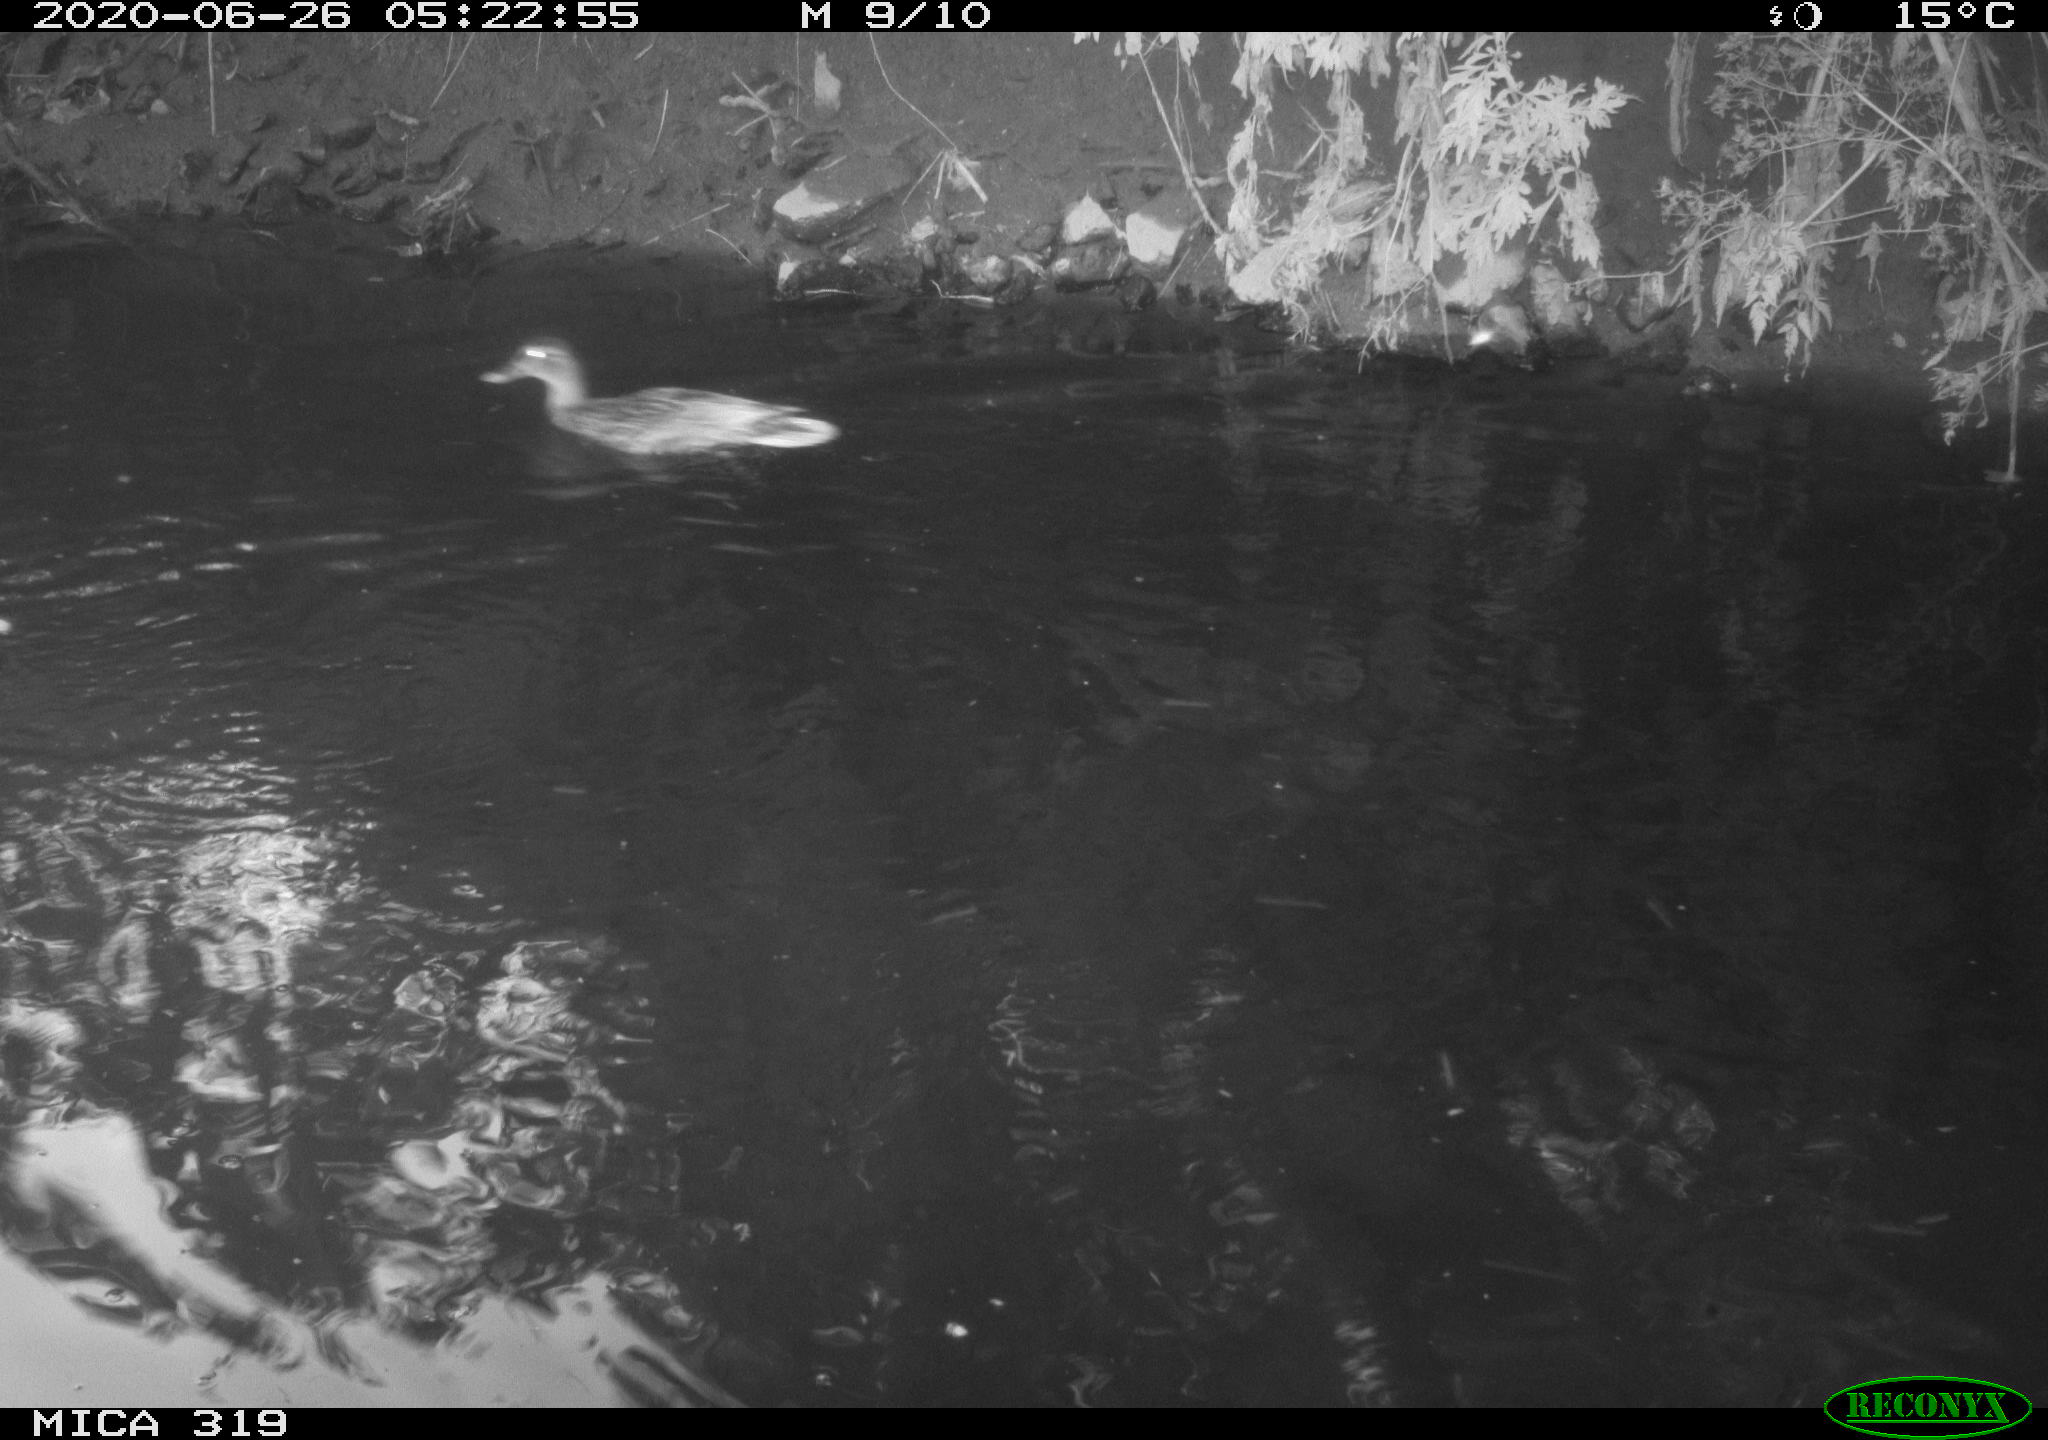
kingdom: Animalia
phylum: Chordata
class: Aves
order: Anseriformes
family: Anatidae
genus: Anas
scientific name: Anas platyrhynchos
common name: Mallard
